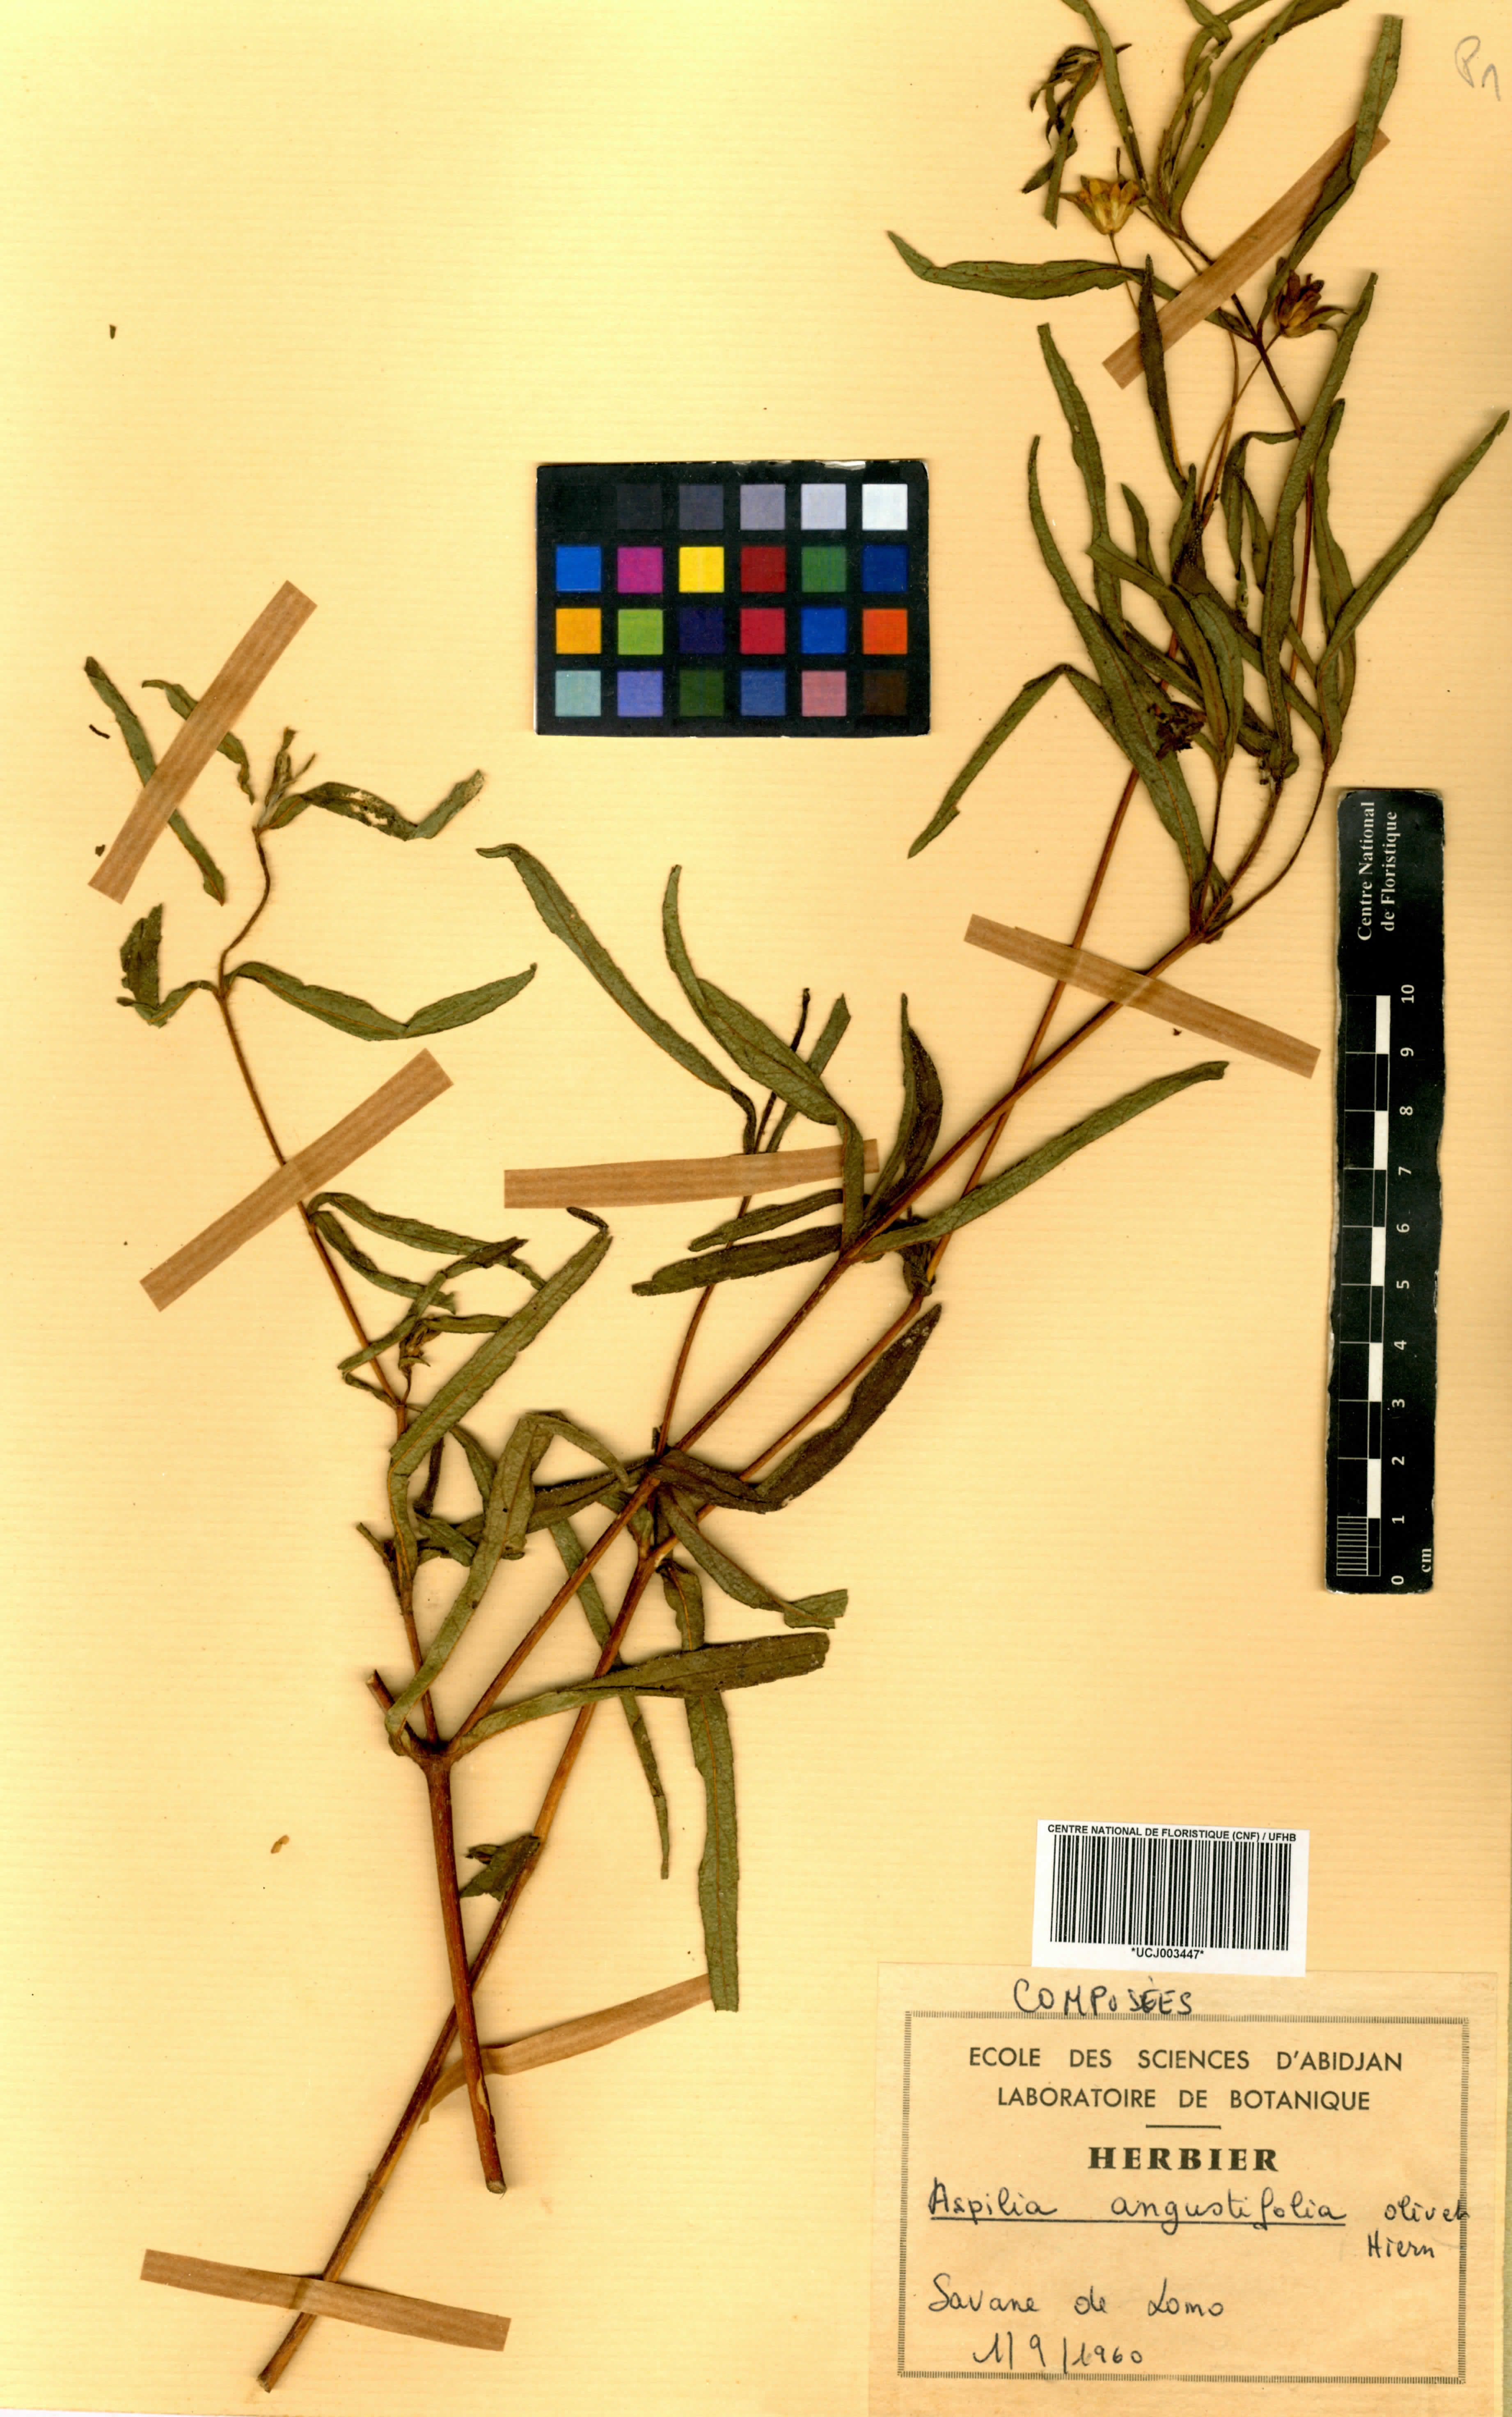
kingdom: Plantae
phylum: Tracheophyta
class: Magnoliopsida
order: Asterales
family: Asteraceae
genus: Aspilia
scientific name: Aspilia angustifolia
